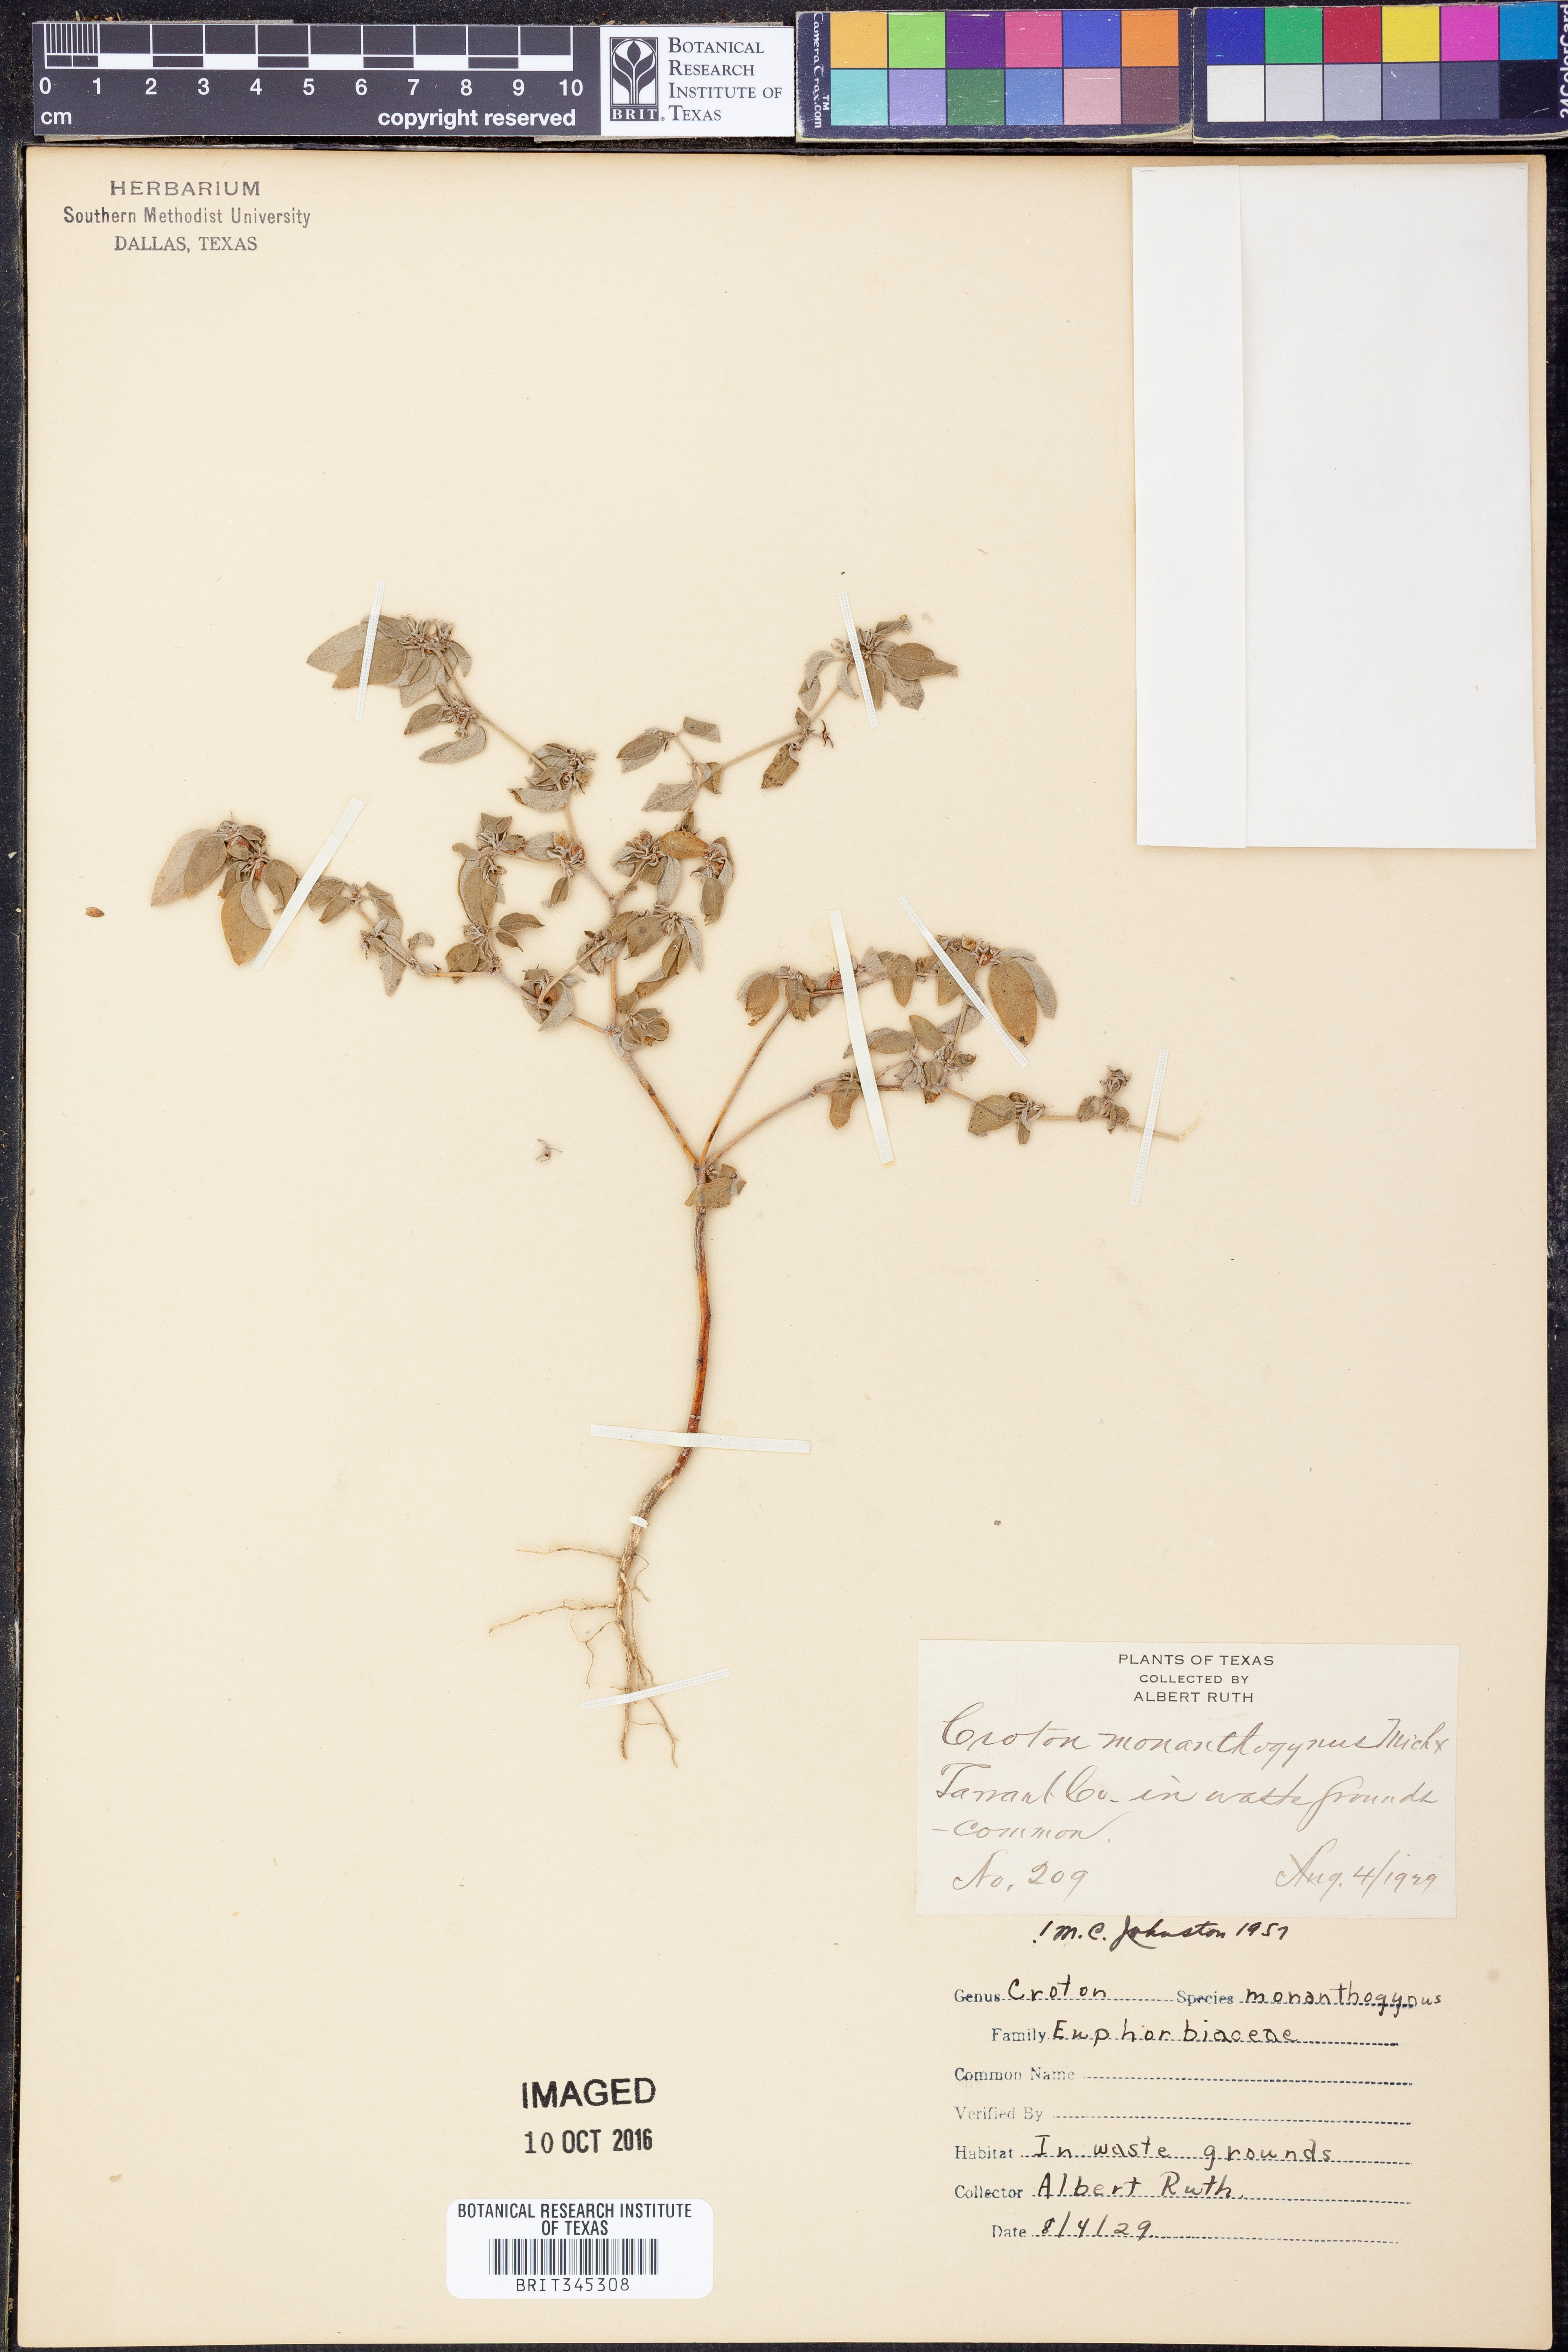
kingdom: Plantae
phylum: Tracheophyta
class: Magnoliopsida
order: Malpighiales
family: Euphorbiaceae
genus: Croton
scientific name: Croton monanthogynus
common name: One-seed croton
